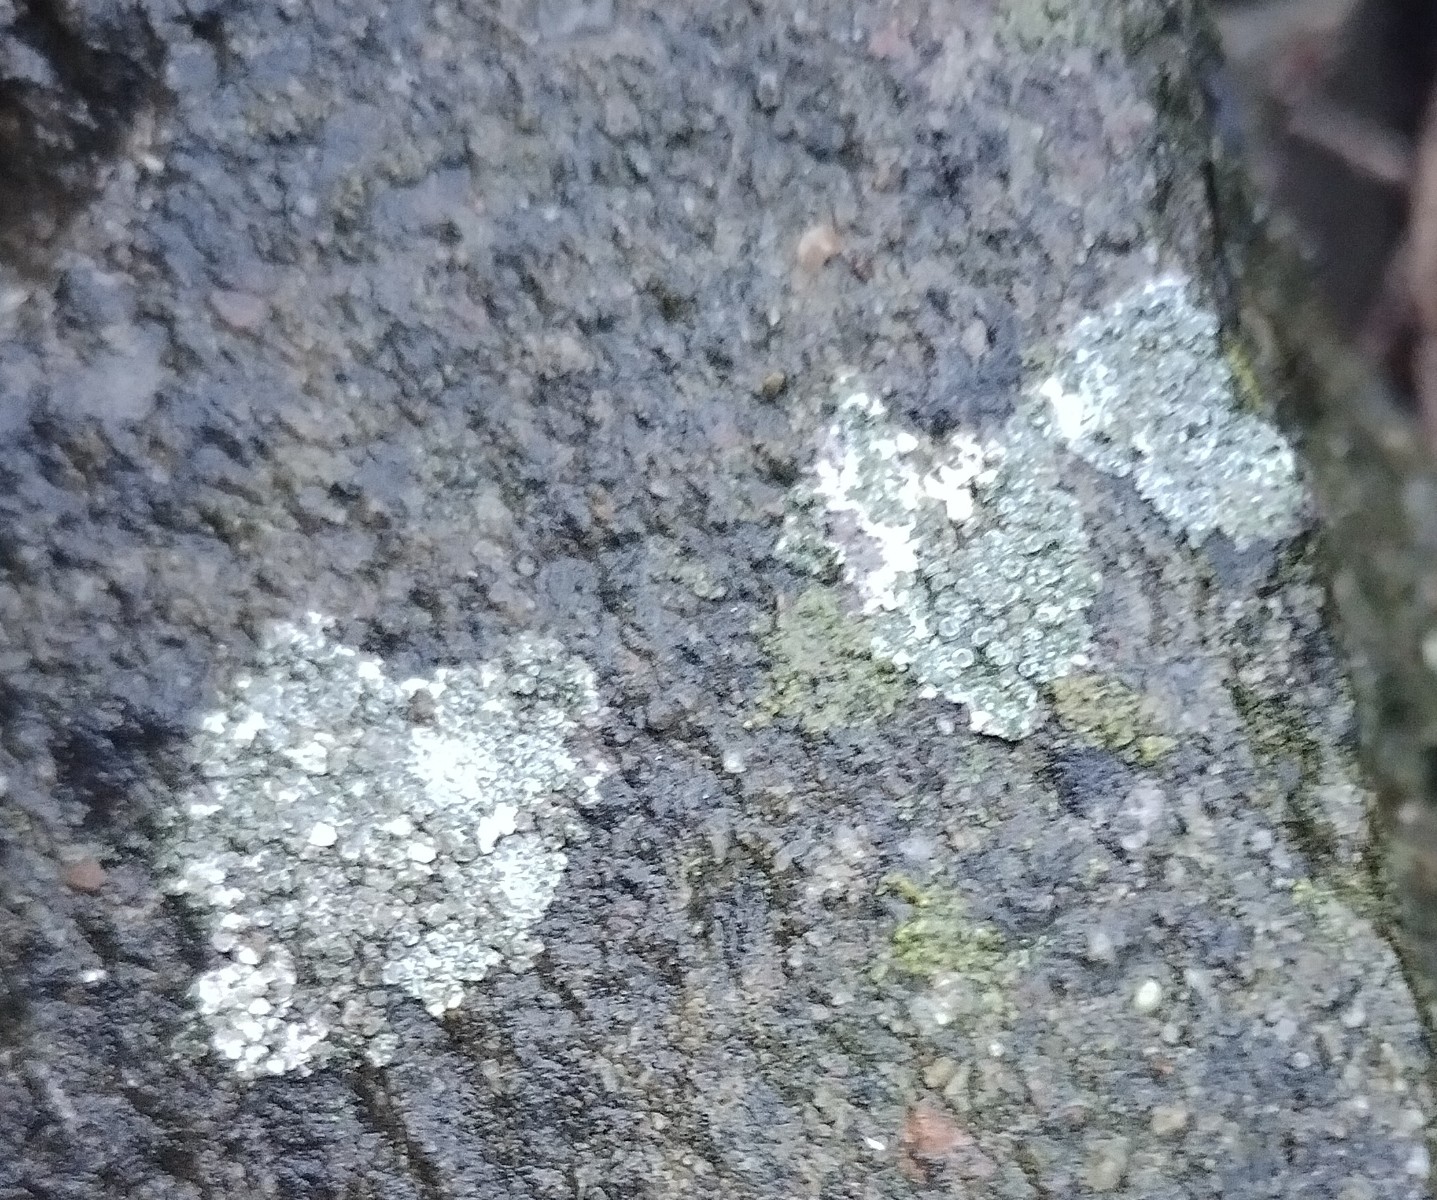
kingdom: Fungi
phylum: Ascomycota
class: Lecanoromycetes
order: Pertusariales
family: Megasporaceae
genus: Circinaria
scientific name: Circinaria contorta
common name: indviklet hulskivelav
